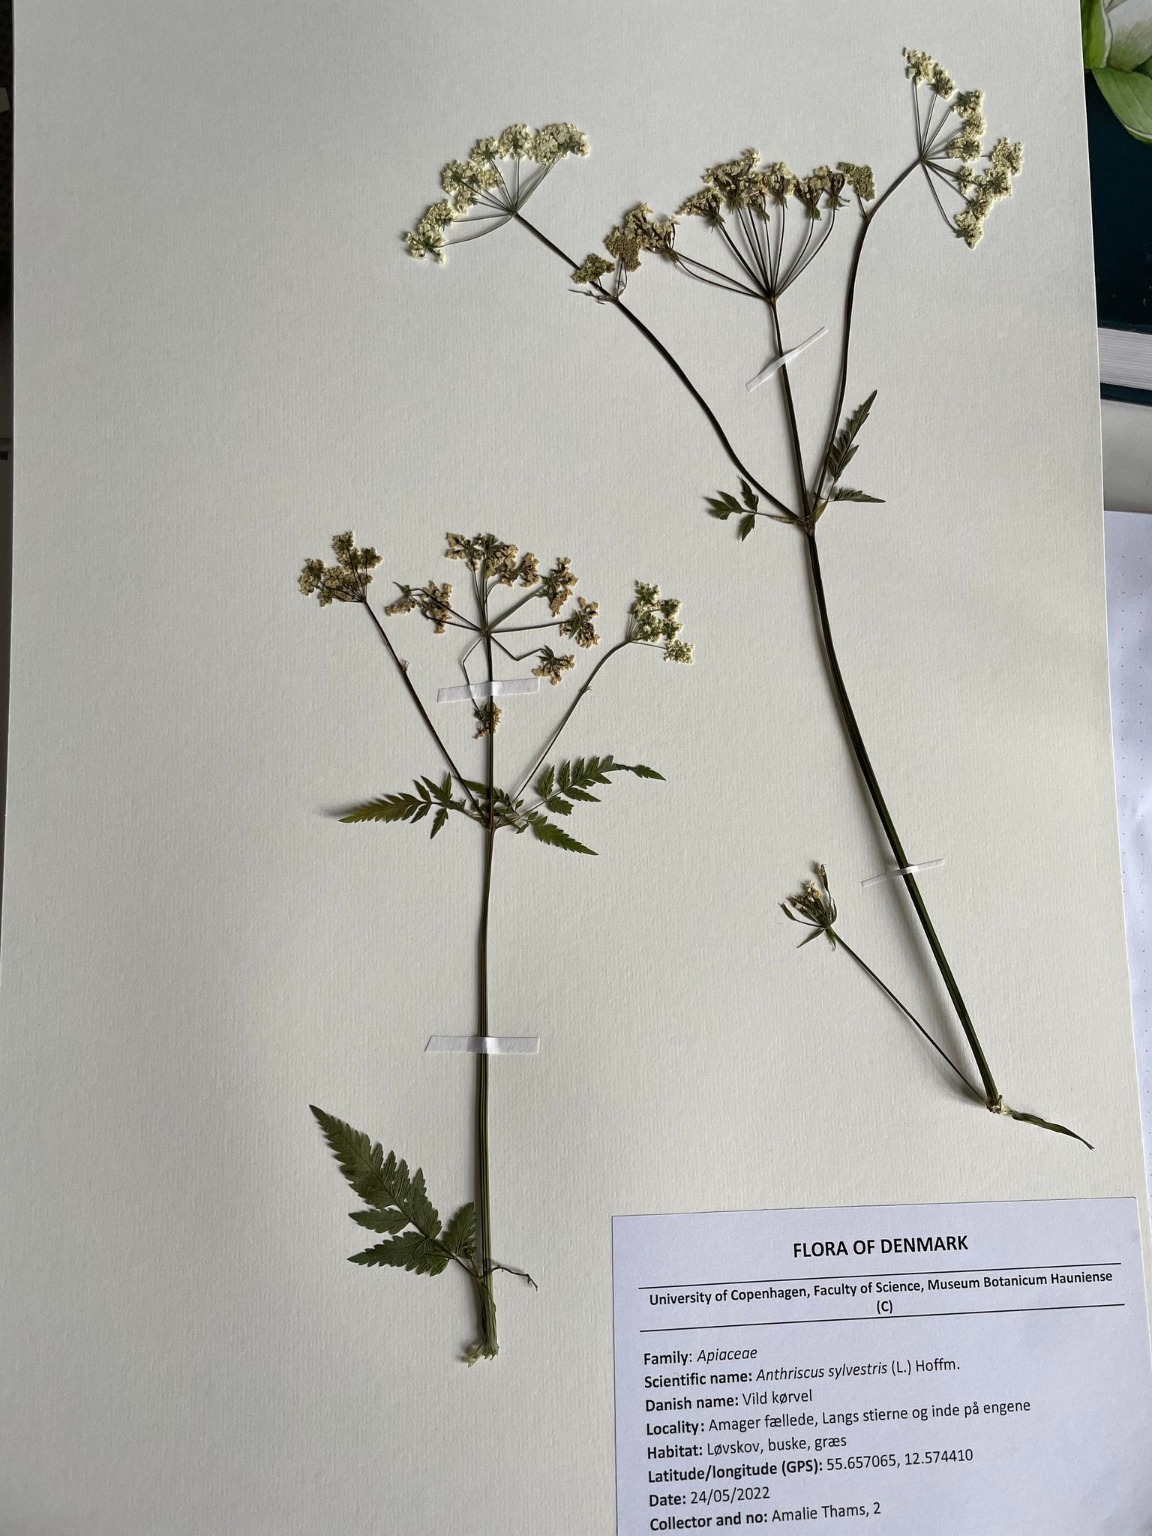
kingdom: Plantae
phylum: Tracheophyta
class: Magnoliopsida
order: Apiales
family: Apiaceae
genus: Anthriscus
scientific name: Anthriscus sylvestris
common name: Vild kørvel
